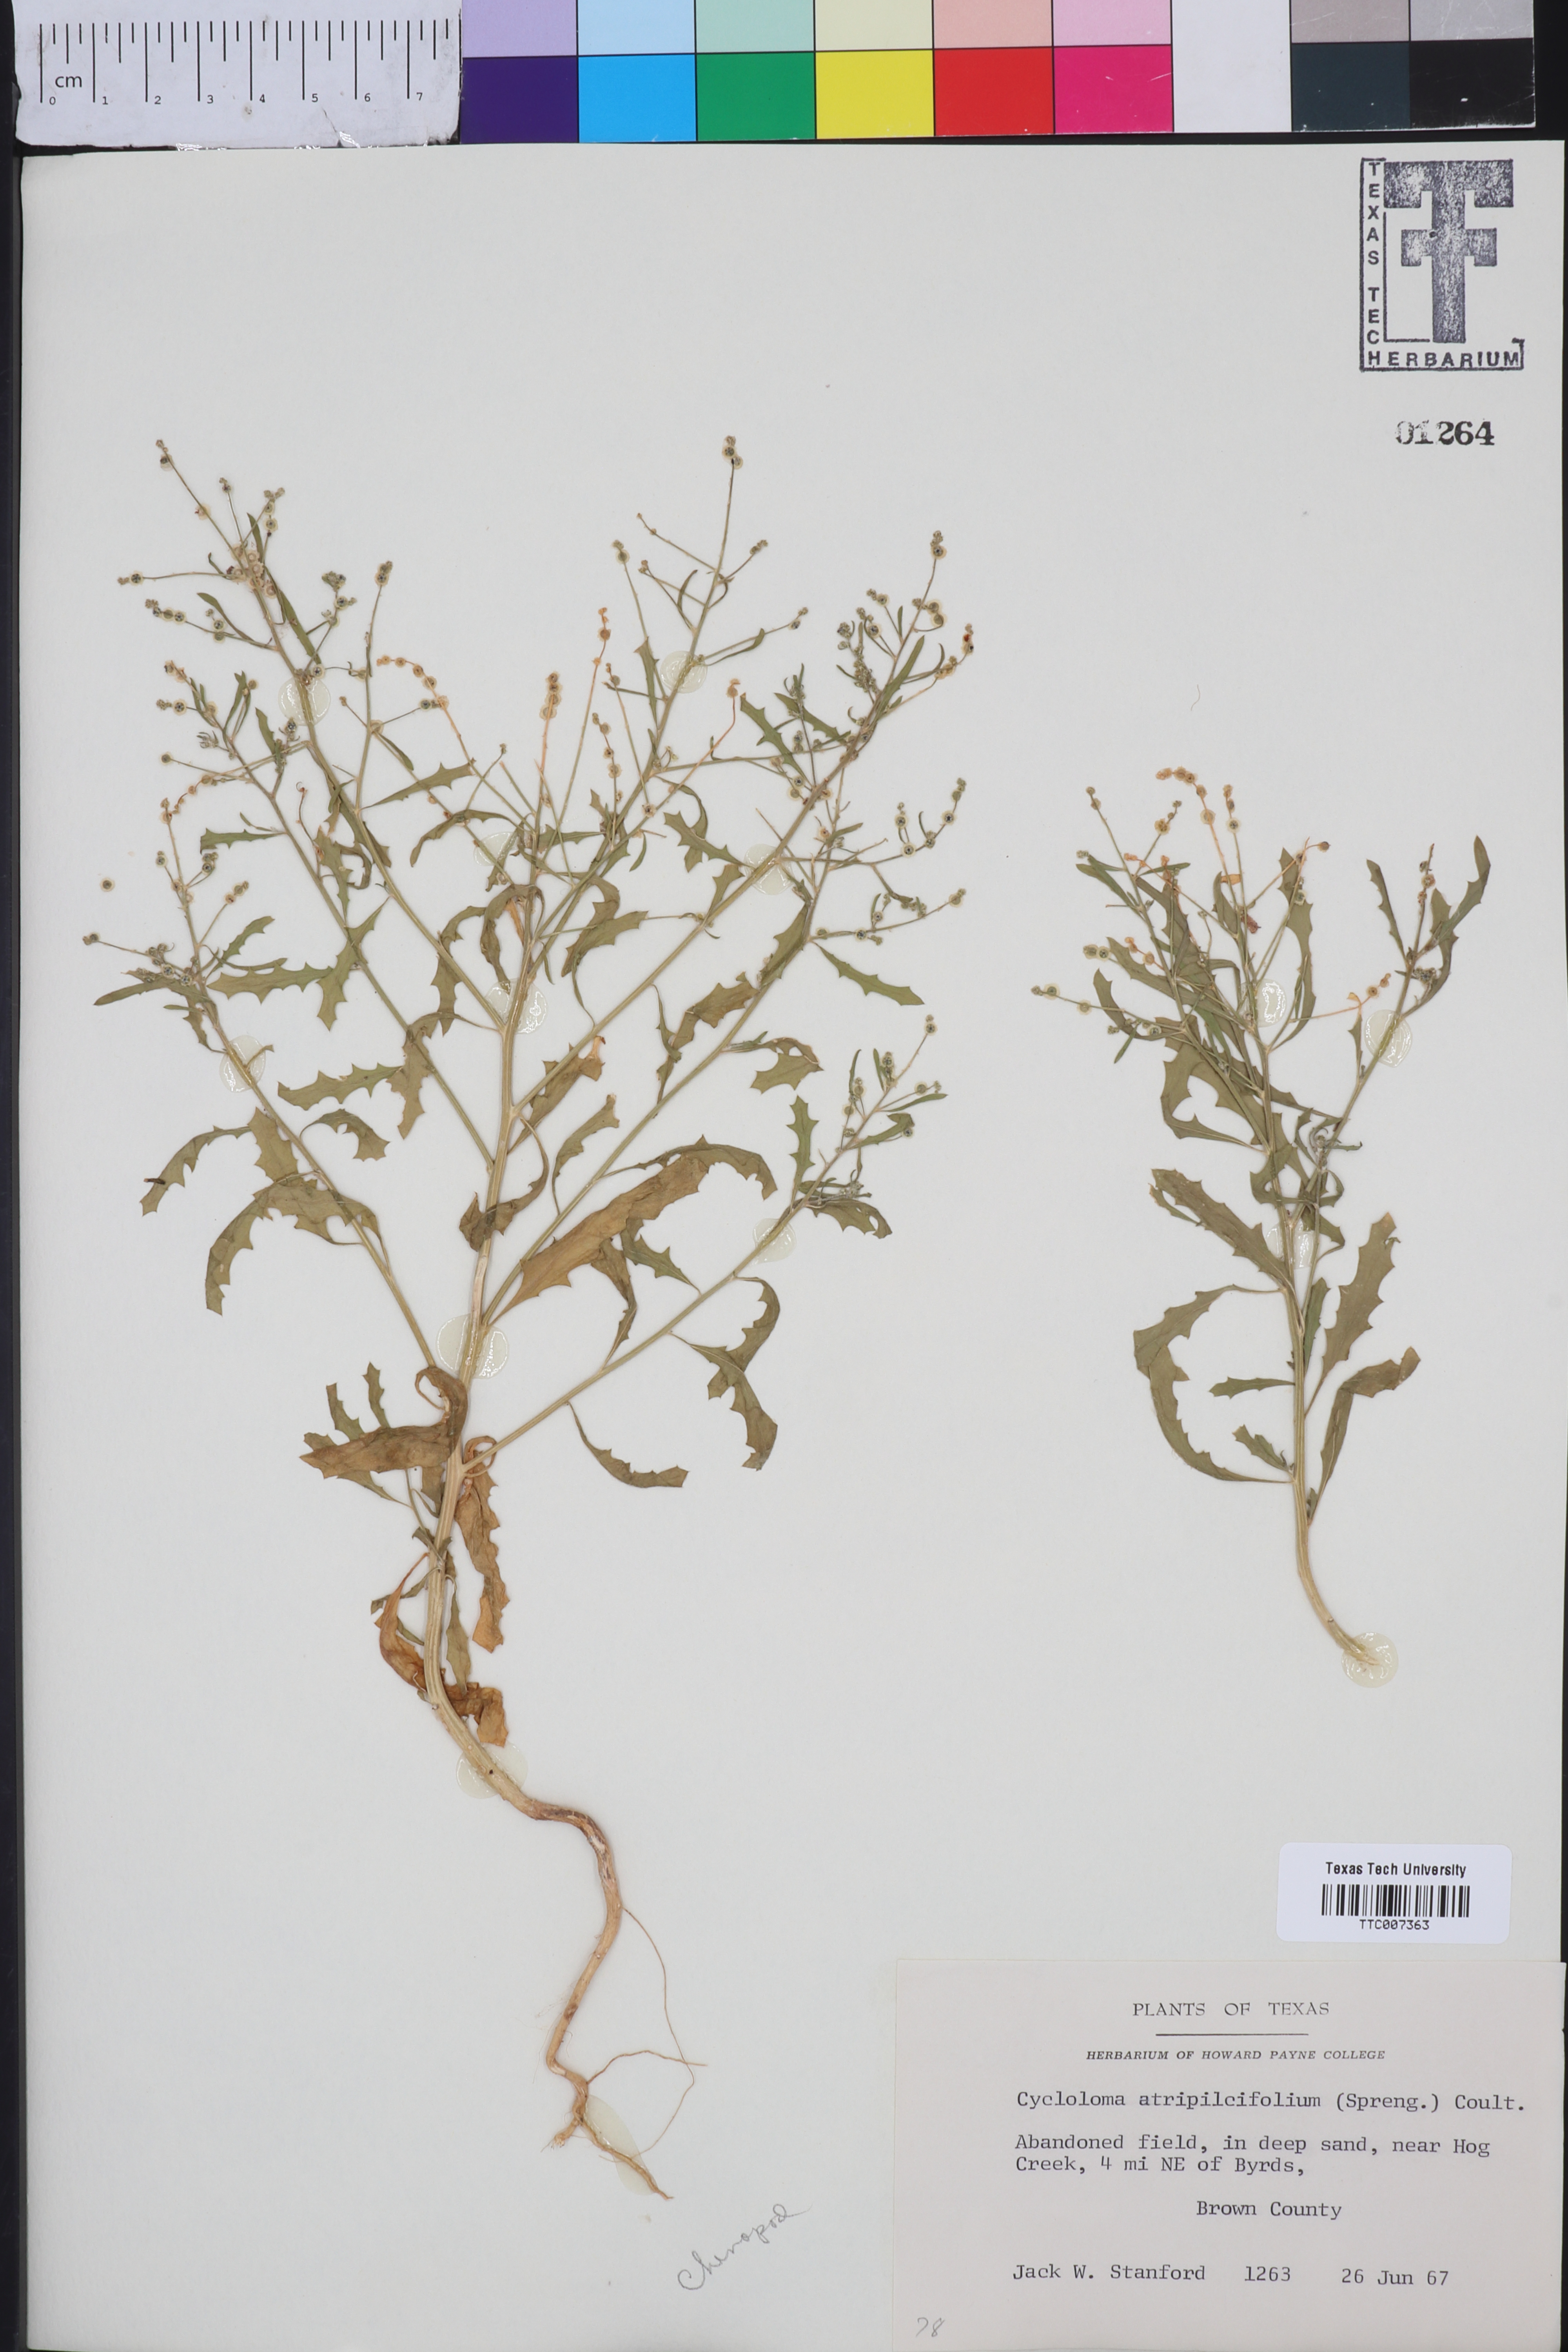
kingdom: Plantae
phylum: Tracheophyta
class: Magnoliopsida
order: Caryophyllales
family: Amaranthaceae
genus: Dysphania
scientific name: Dysphania atriplicifolia
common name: Plains tumbleweed
